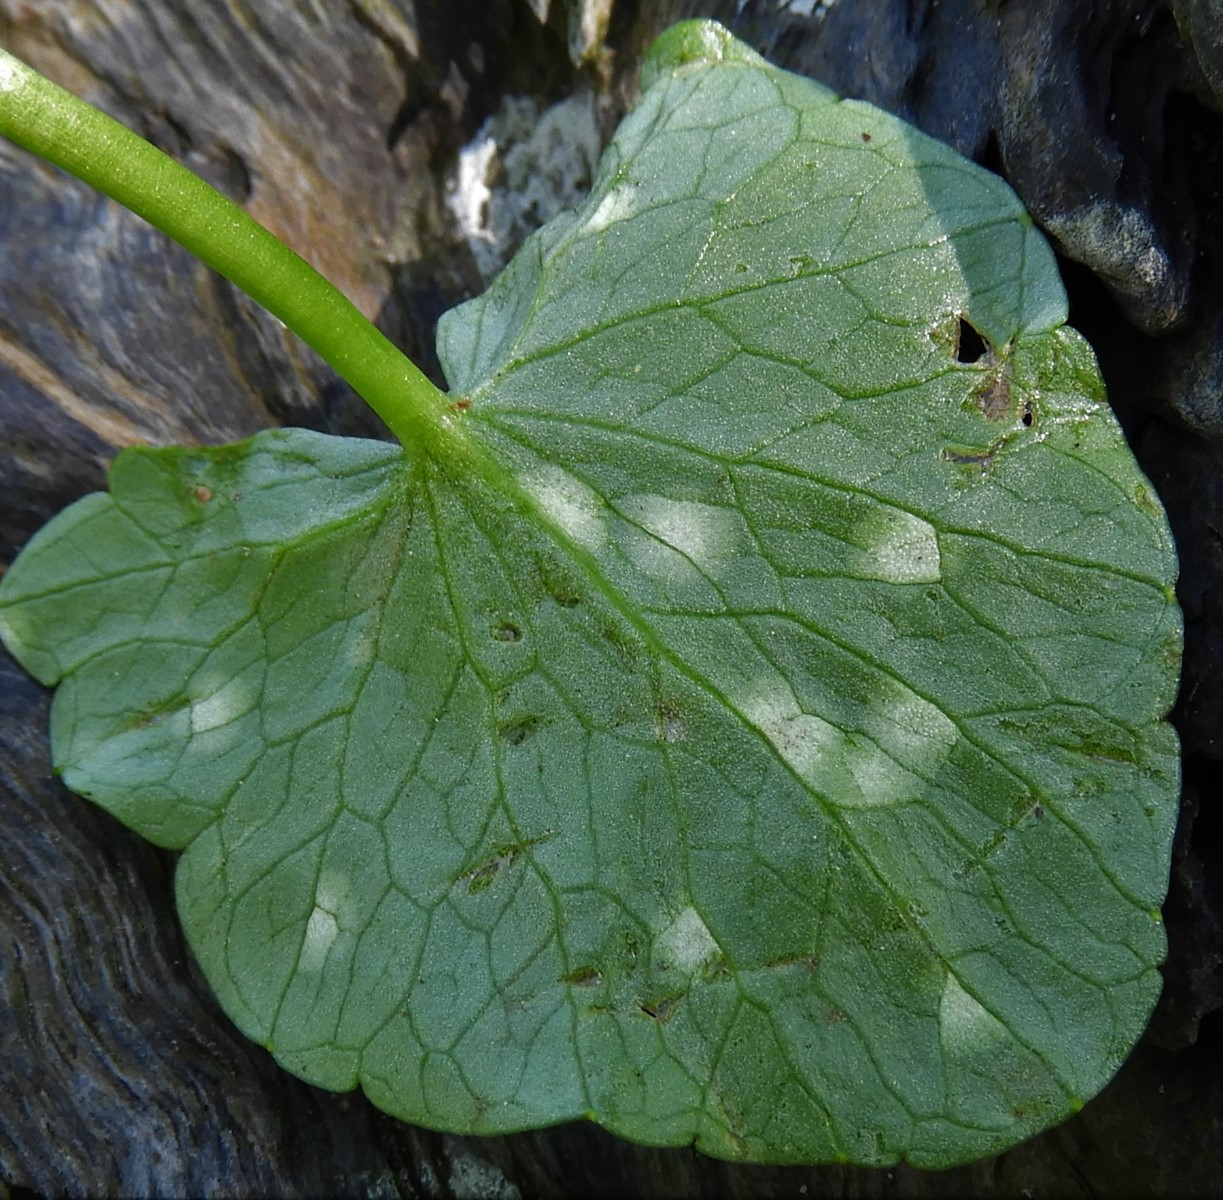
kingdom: Fungi
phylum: Basidiomycota
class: Exobasidiomycetes
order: Entylomatales
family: Entylomataceae
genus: Entyloma
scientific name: Entyloma ficariae
